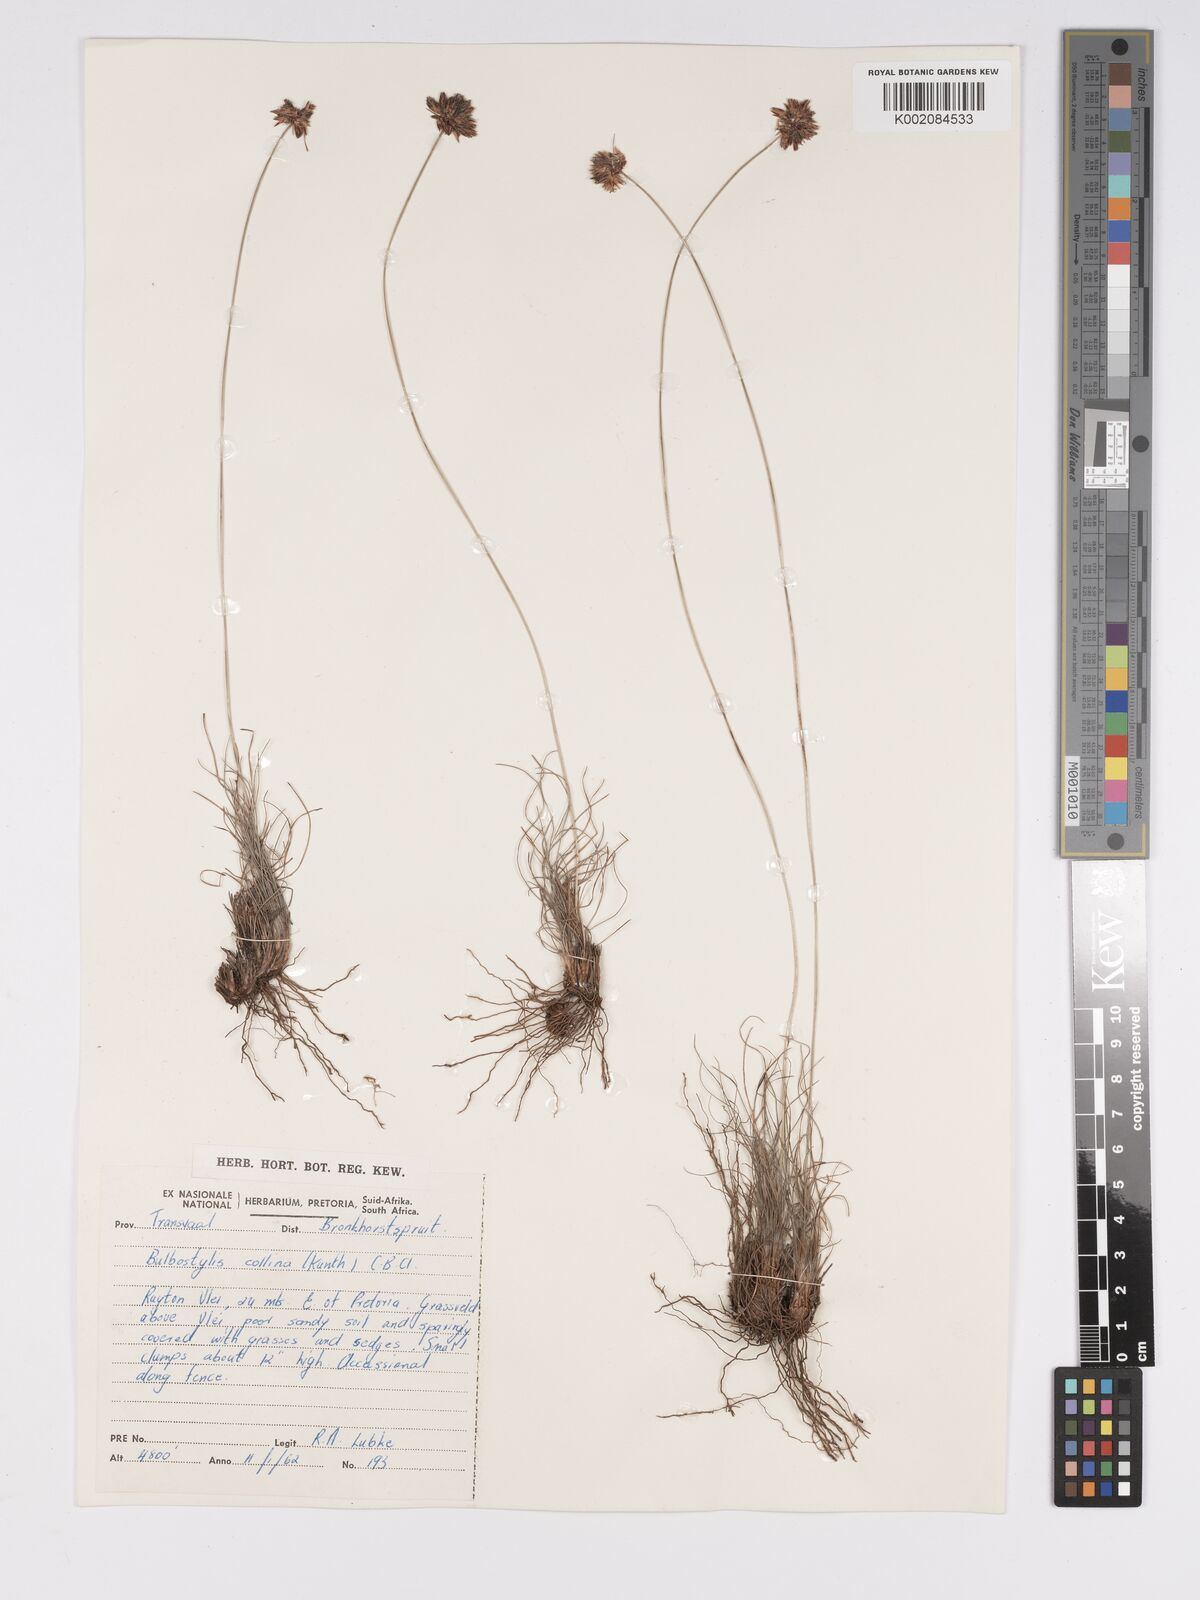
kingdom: Plantae
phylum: Tracheophyta
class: Liliopsida
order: Poales
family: Cyperaceae
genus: Bulbostylis
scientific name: Bulbostylis contexta
